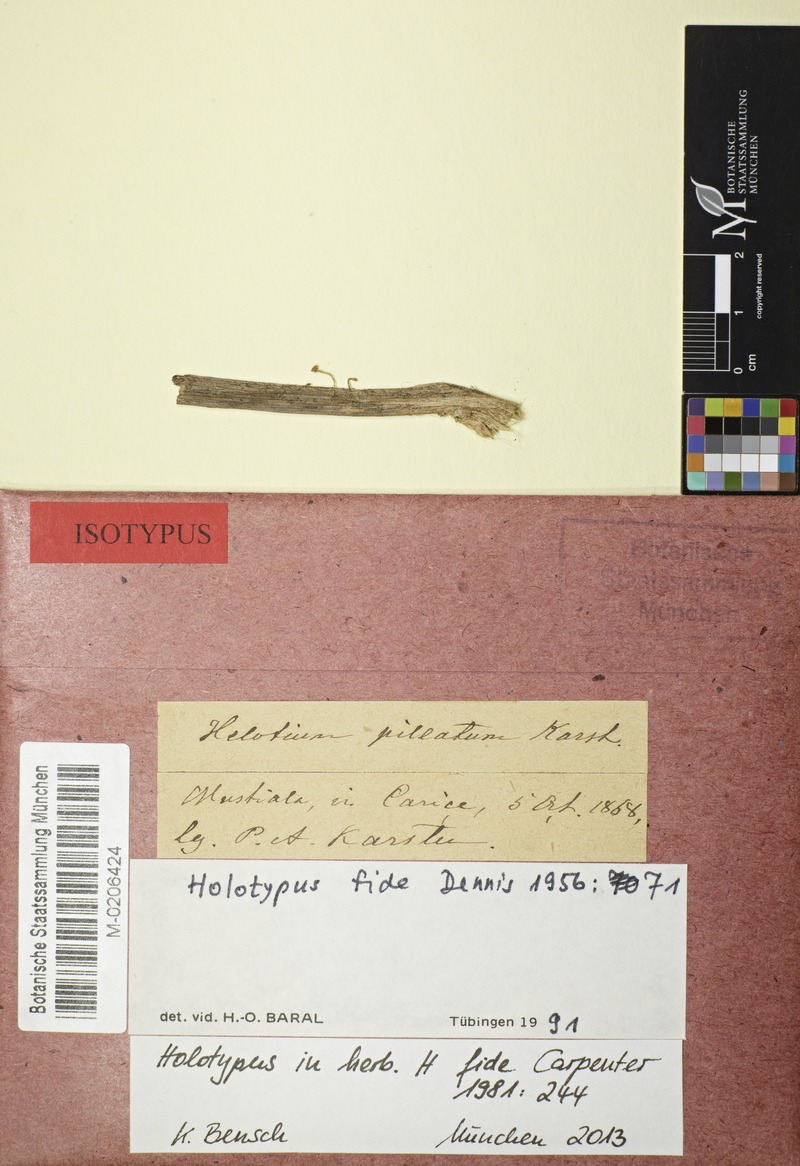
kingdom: Plantae
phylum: Tracheophyta
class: Liliopsida
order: Poales
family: Cyperaceae
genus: Carex
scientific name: Carex
